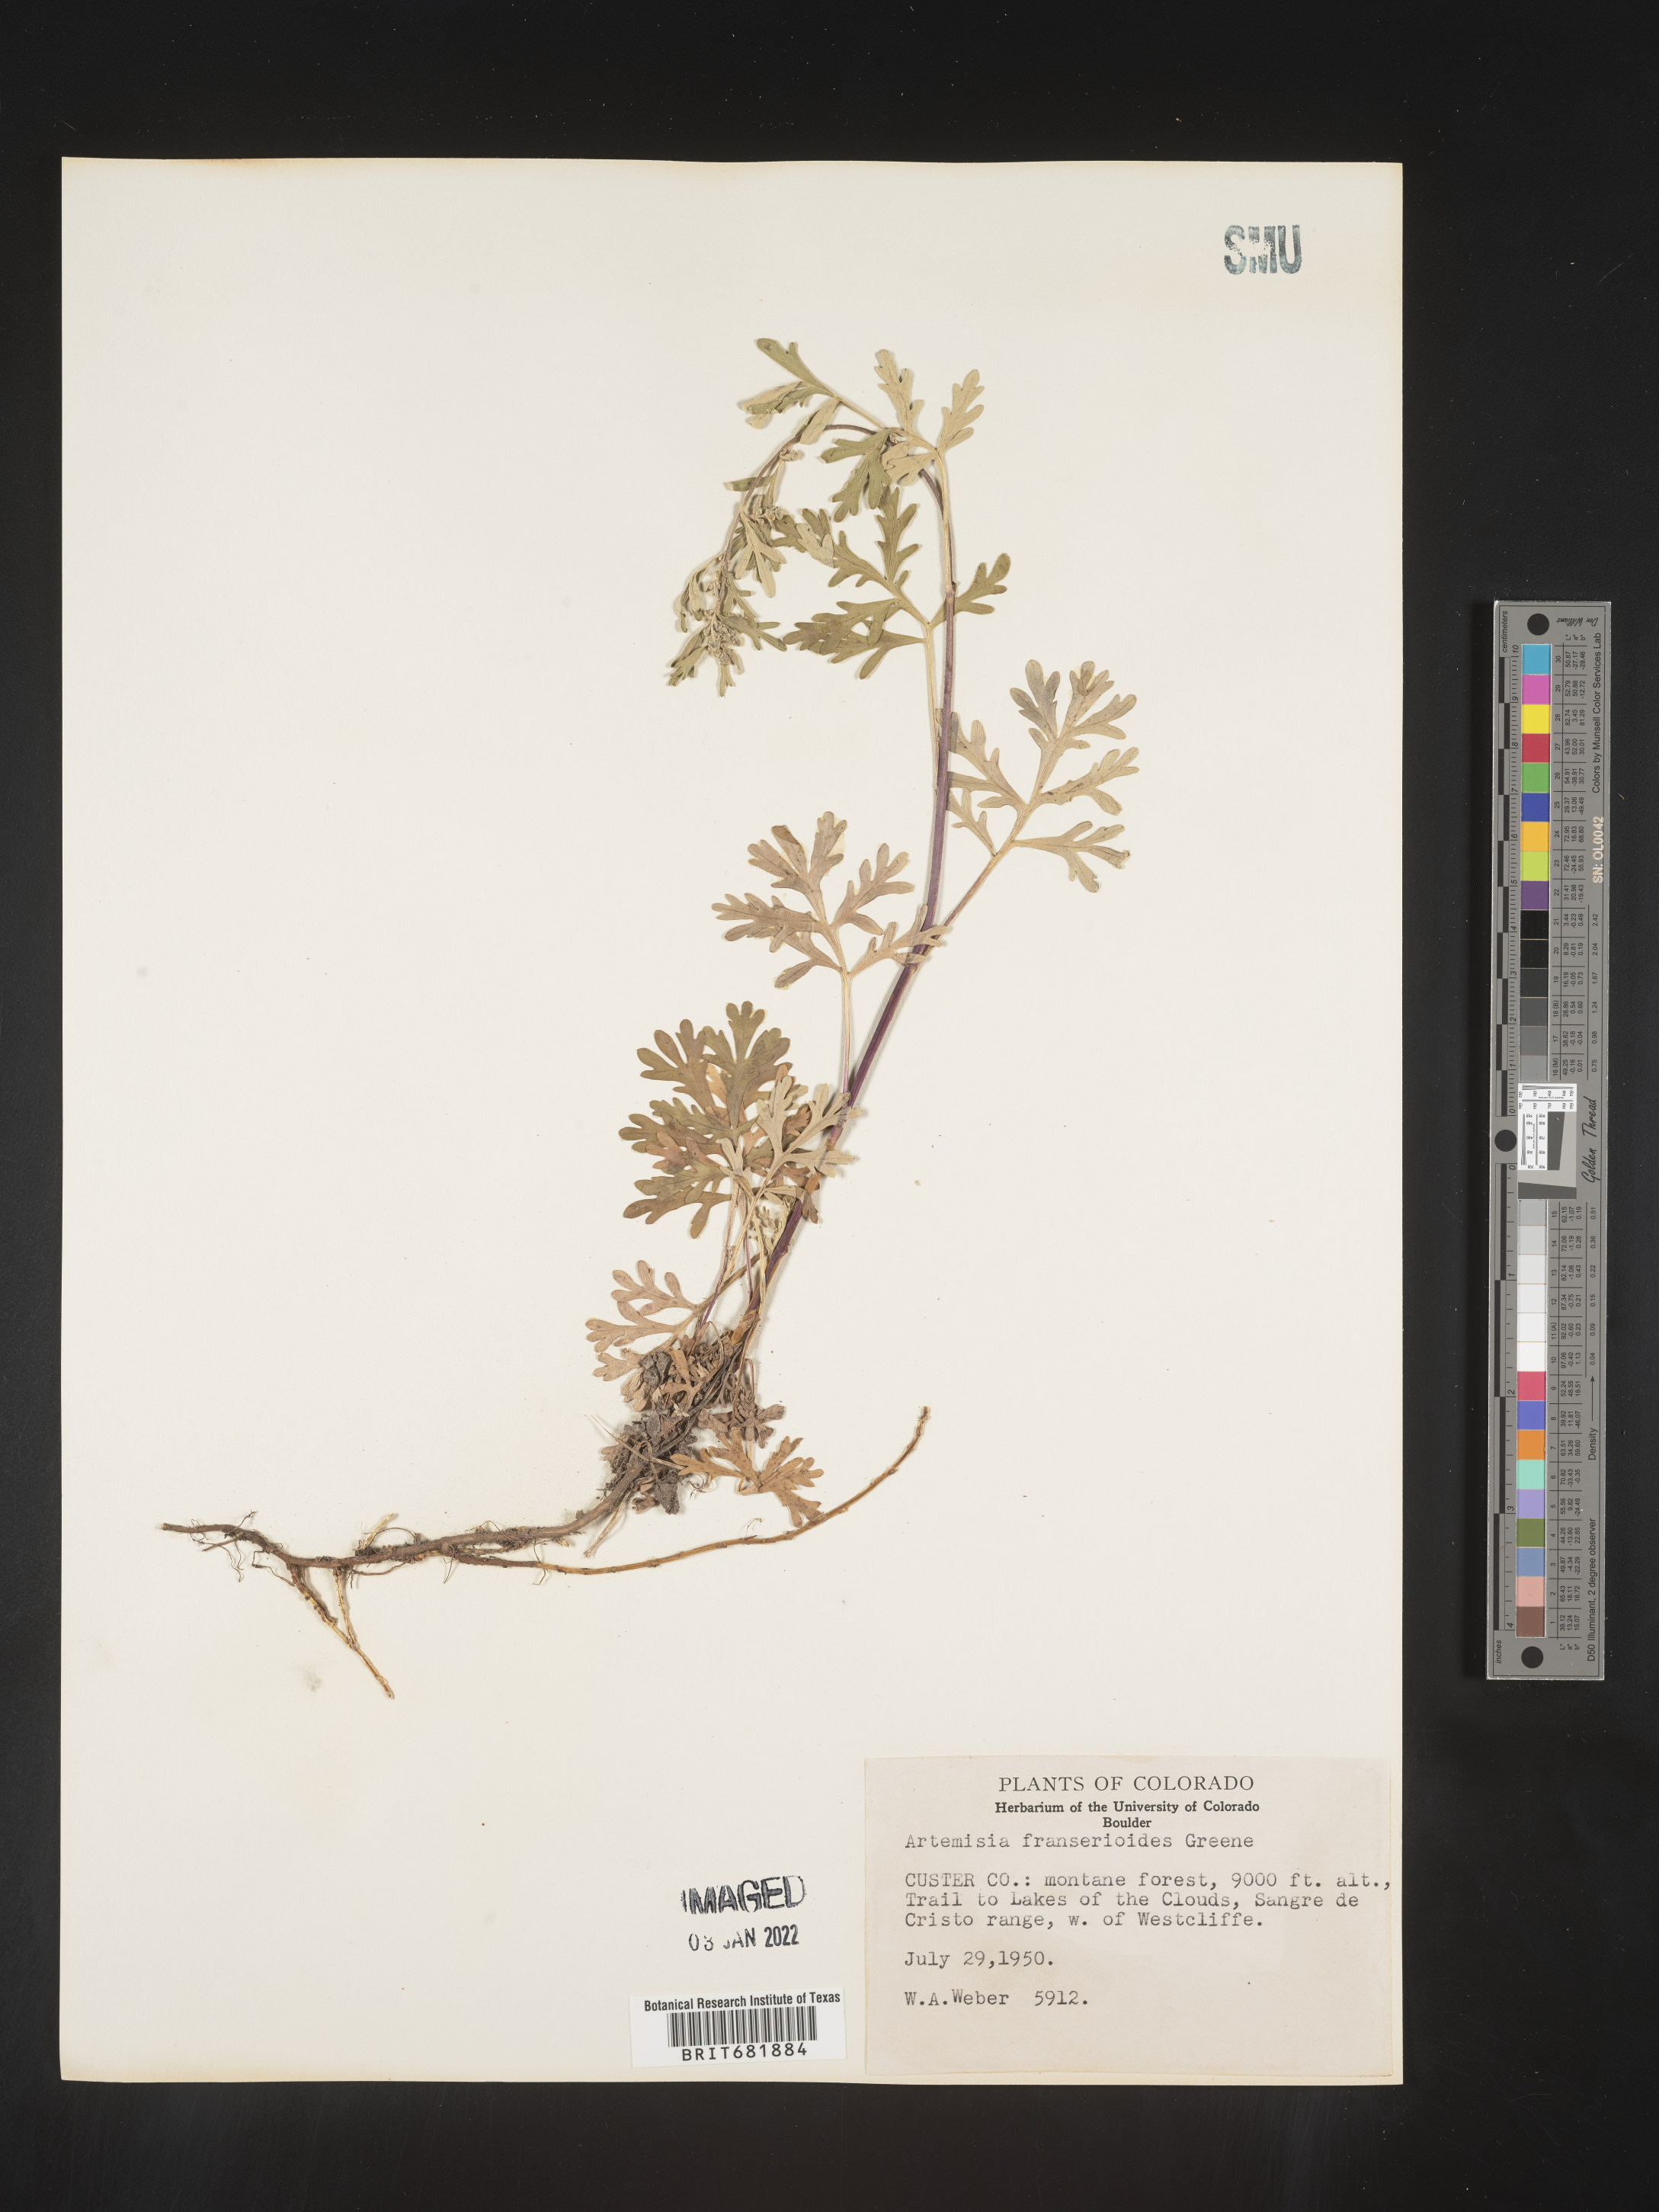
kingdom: Plantae
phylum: Tracheophyta
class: Magnoliopsida
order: Asterales
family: Asteraceae
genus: Artemisia
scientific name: Artemisia franserioides
